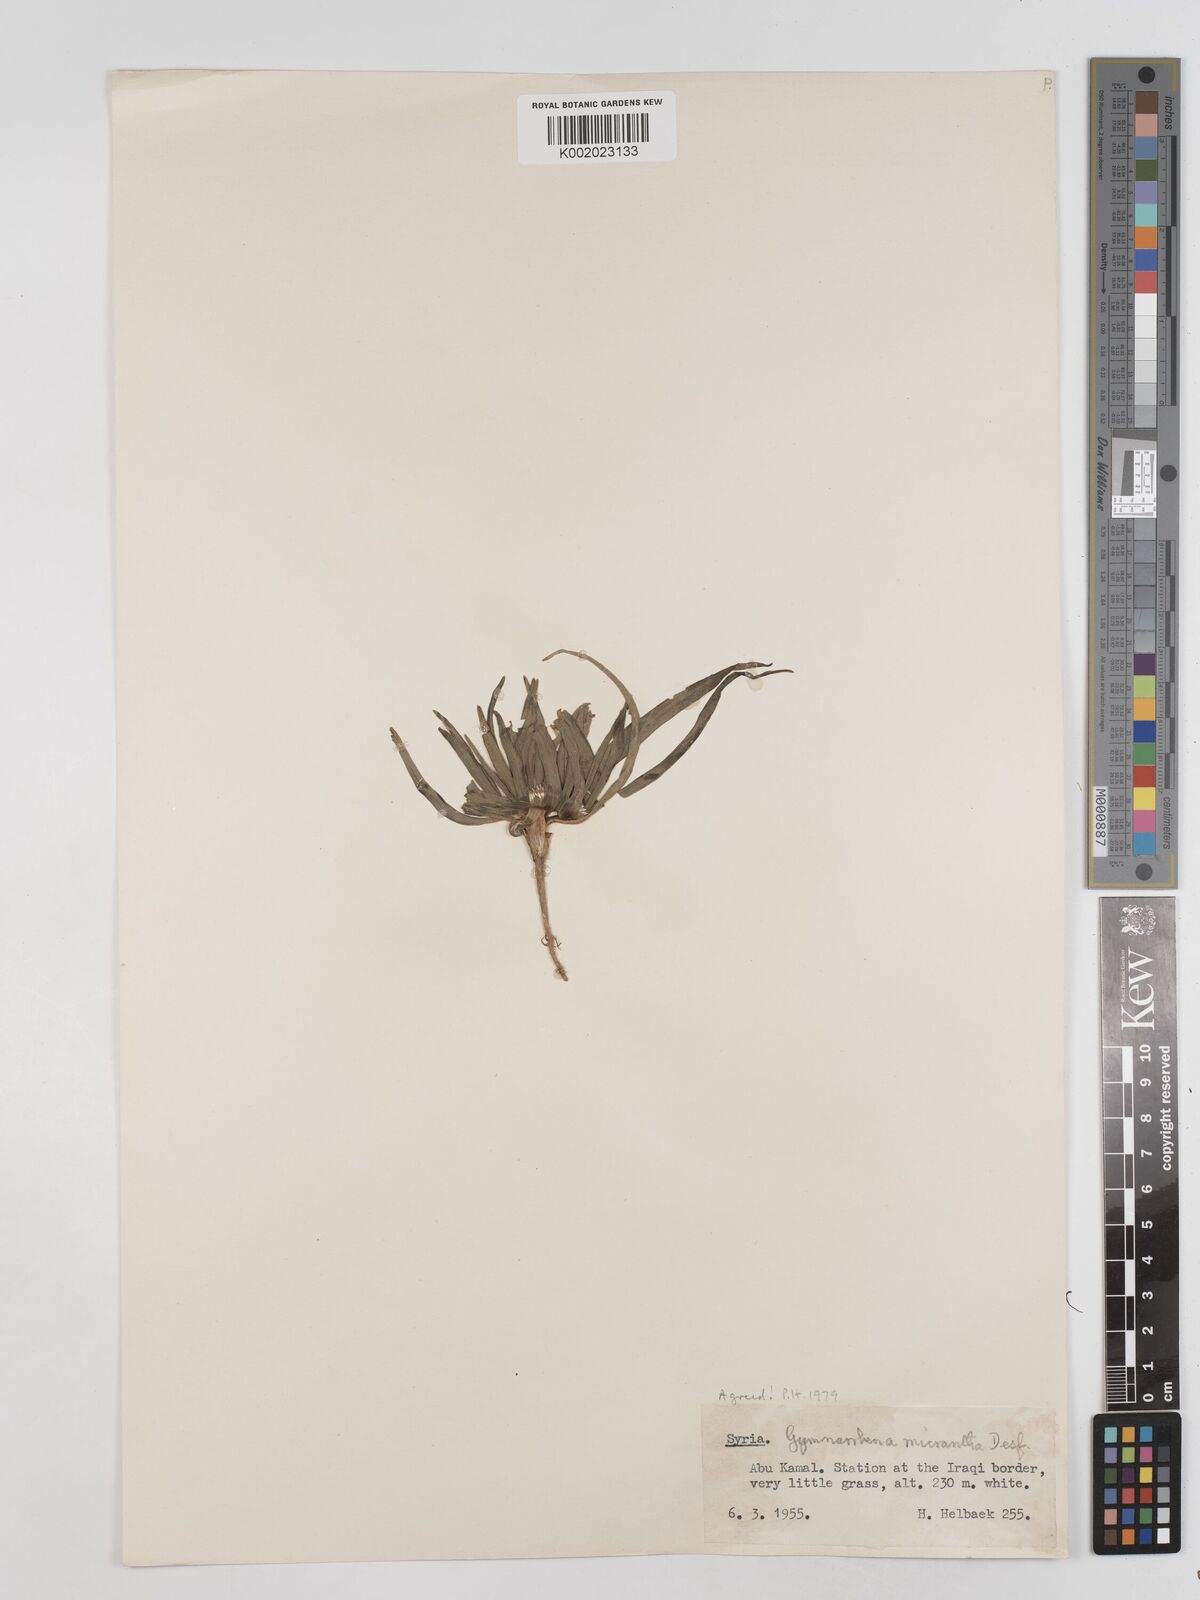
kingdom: Plantae
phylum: Tracheophyta
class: Magnoliopsida
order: Asterales
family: Asteraceae
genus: Gymnarrhena
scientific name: Gymnarrhena micrantha
